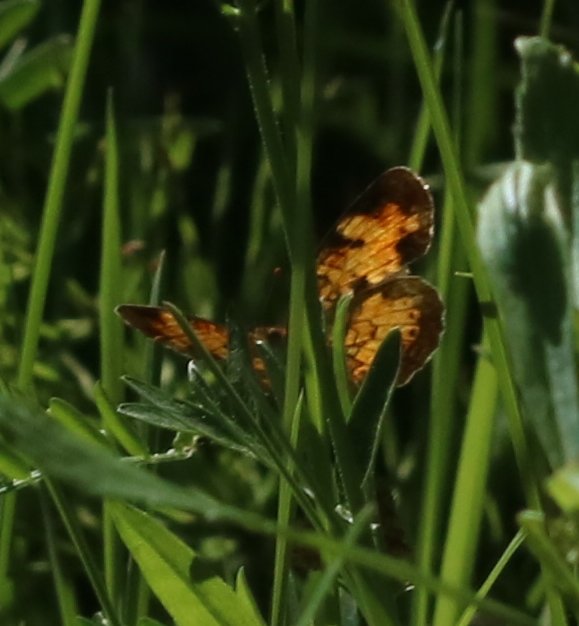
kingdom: Animalia
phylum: Arthropoda
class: Insecta
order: Lepidoptera
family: Nymphalidae
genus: Phyciodes
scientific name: Phyciodes tharos
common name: Northern Crescent
